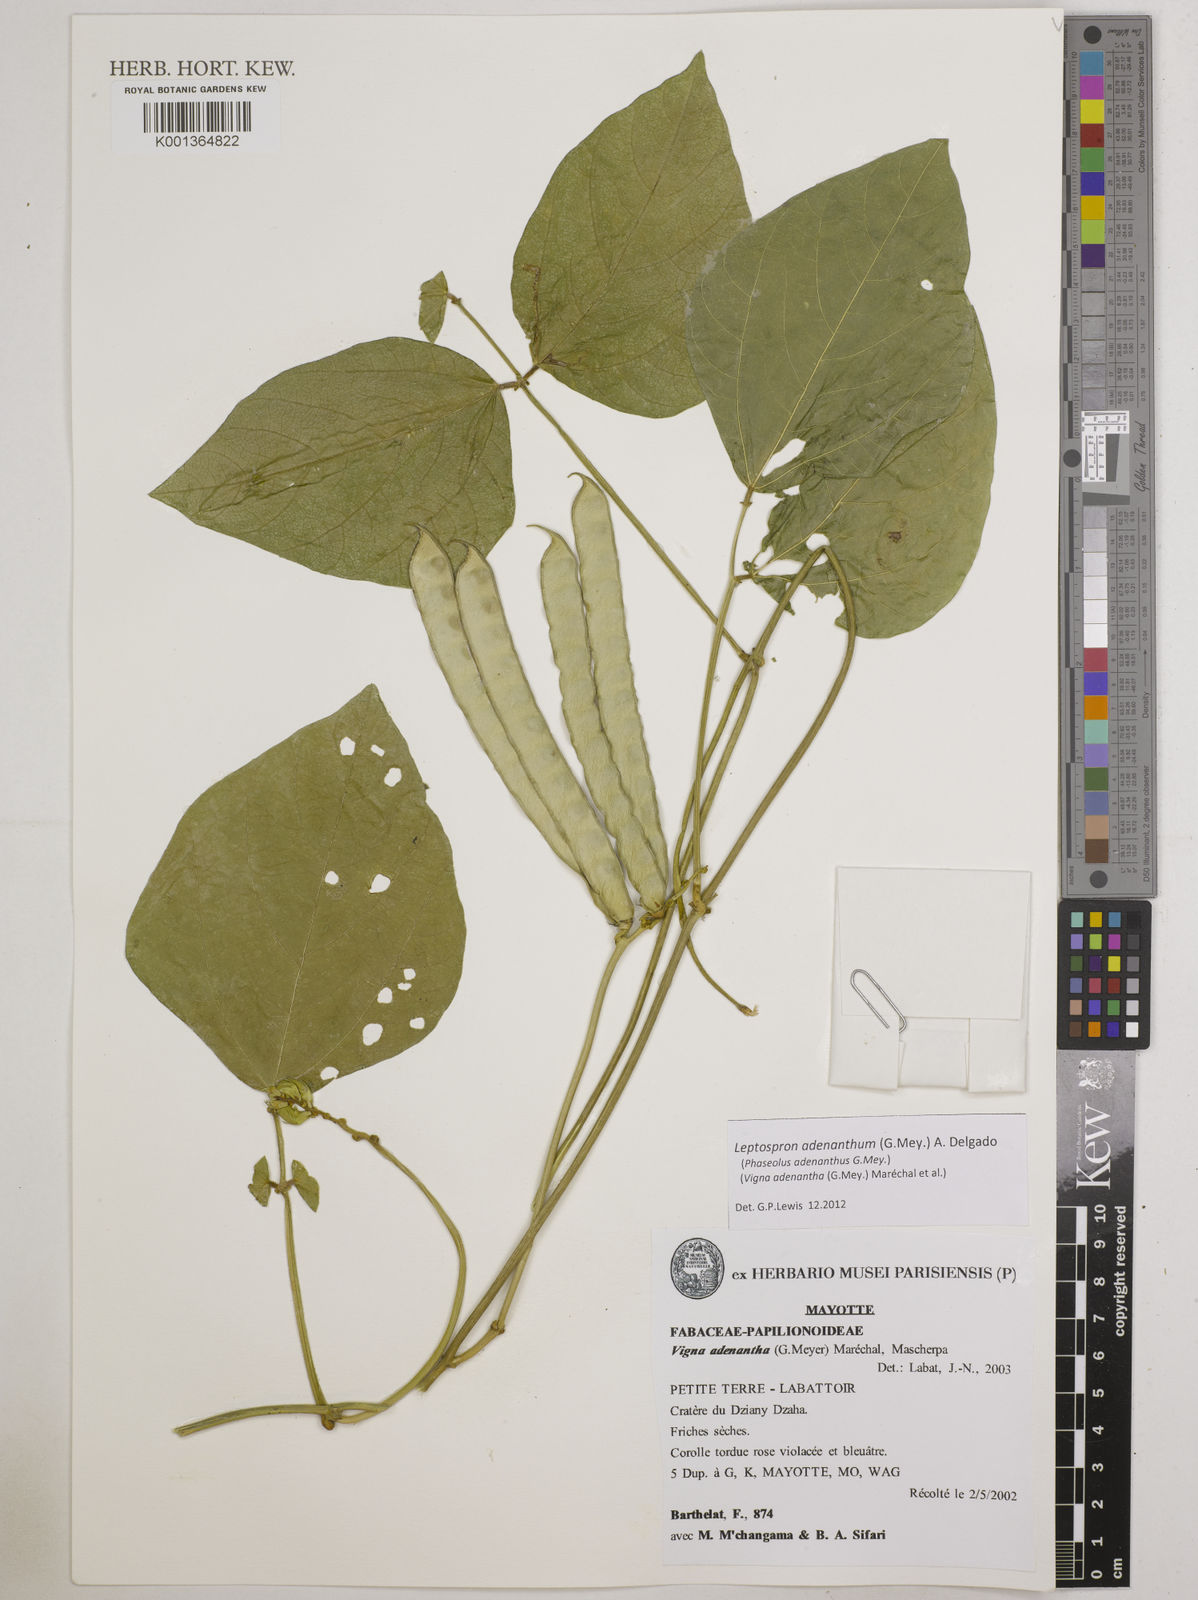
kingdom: Plantae
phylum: Tracheophyta
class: Magnoliopsida
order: Fabales
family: Fabaceae
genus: Leptospron
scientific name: Leptospron adenanthum
